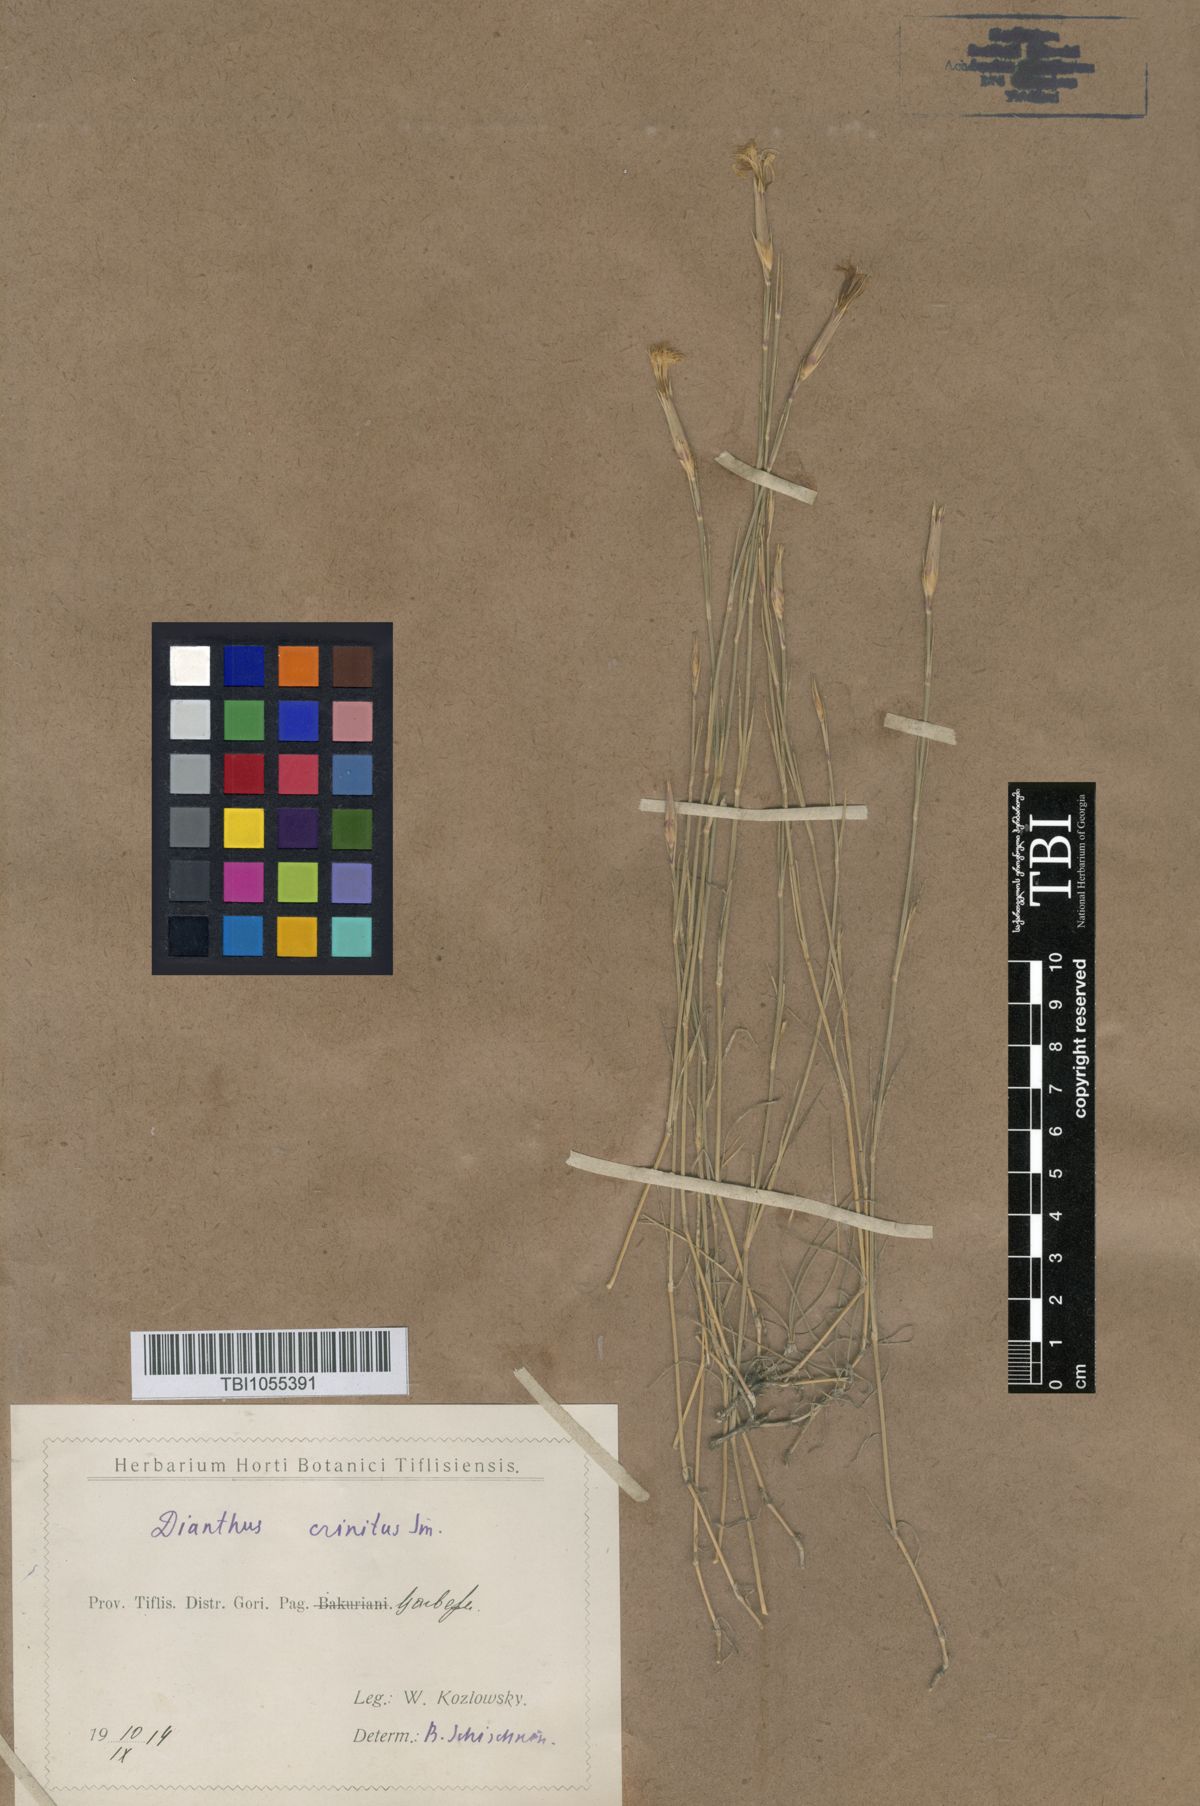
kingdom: Plantae
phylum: Tracheophyta
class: Magnoliopsida
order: Caryophyllales
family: Caryophyllaceae
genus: Dianthus
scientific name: Dianthus crinitus
